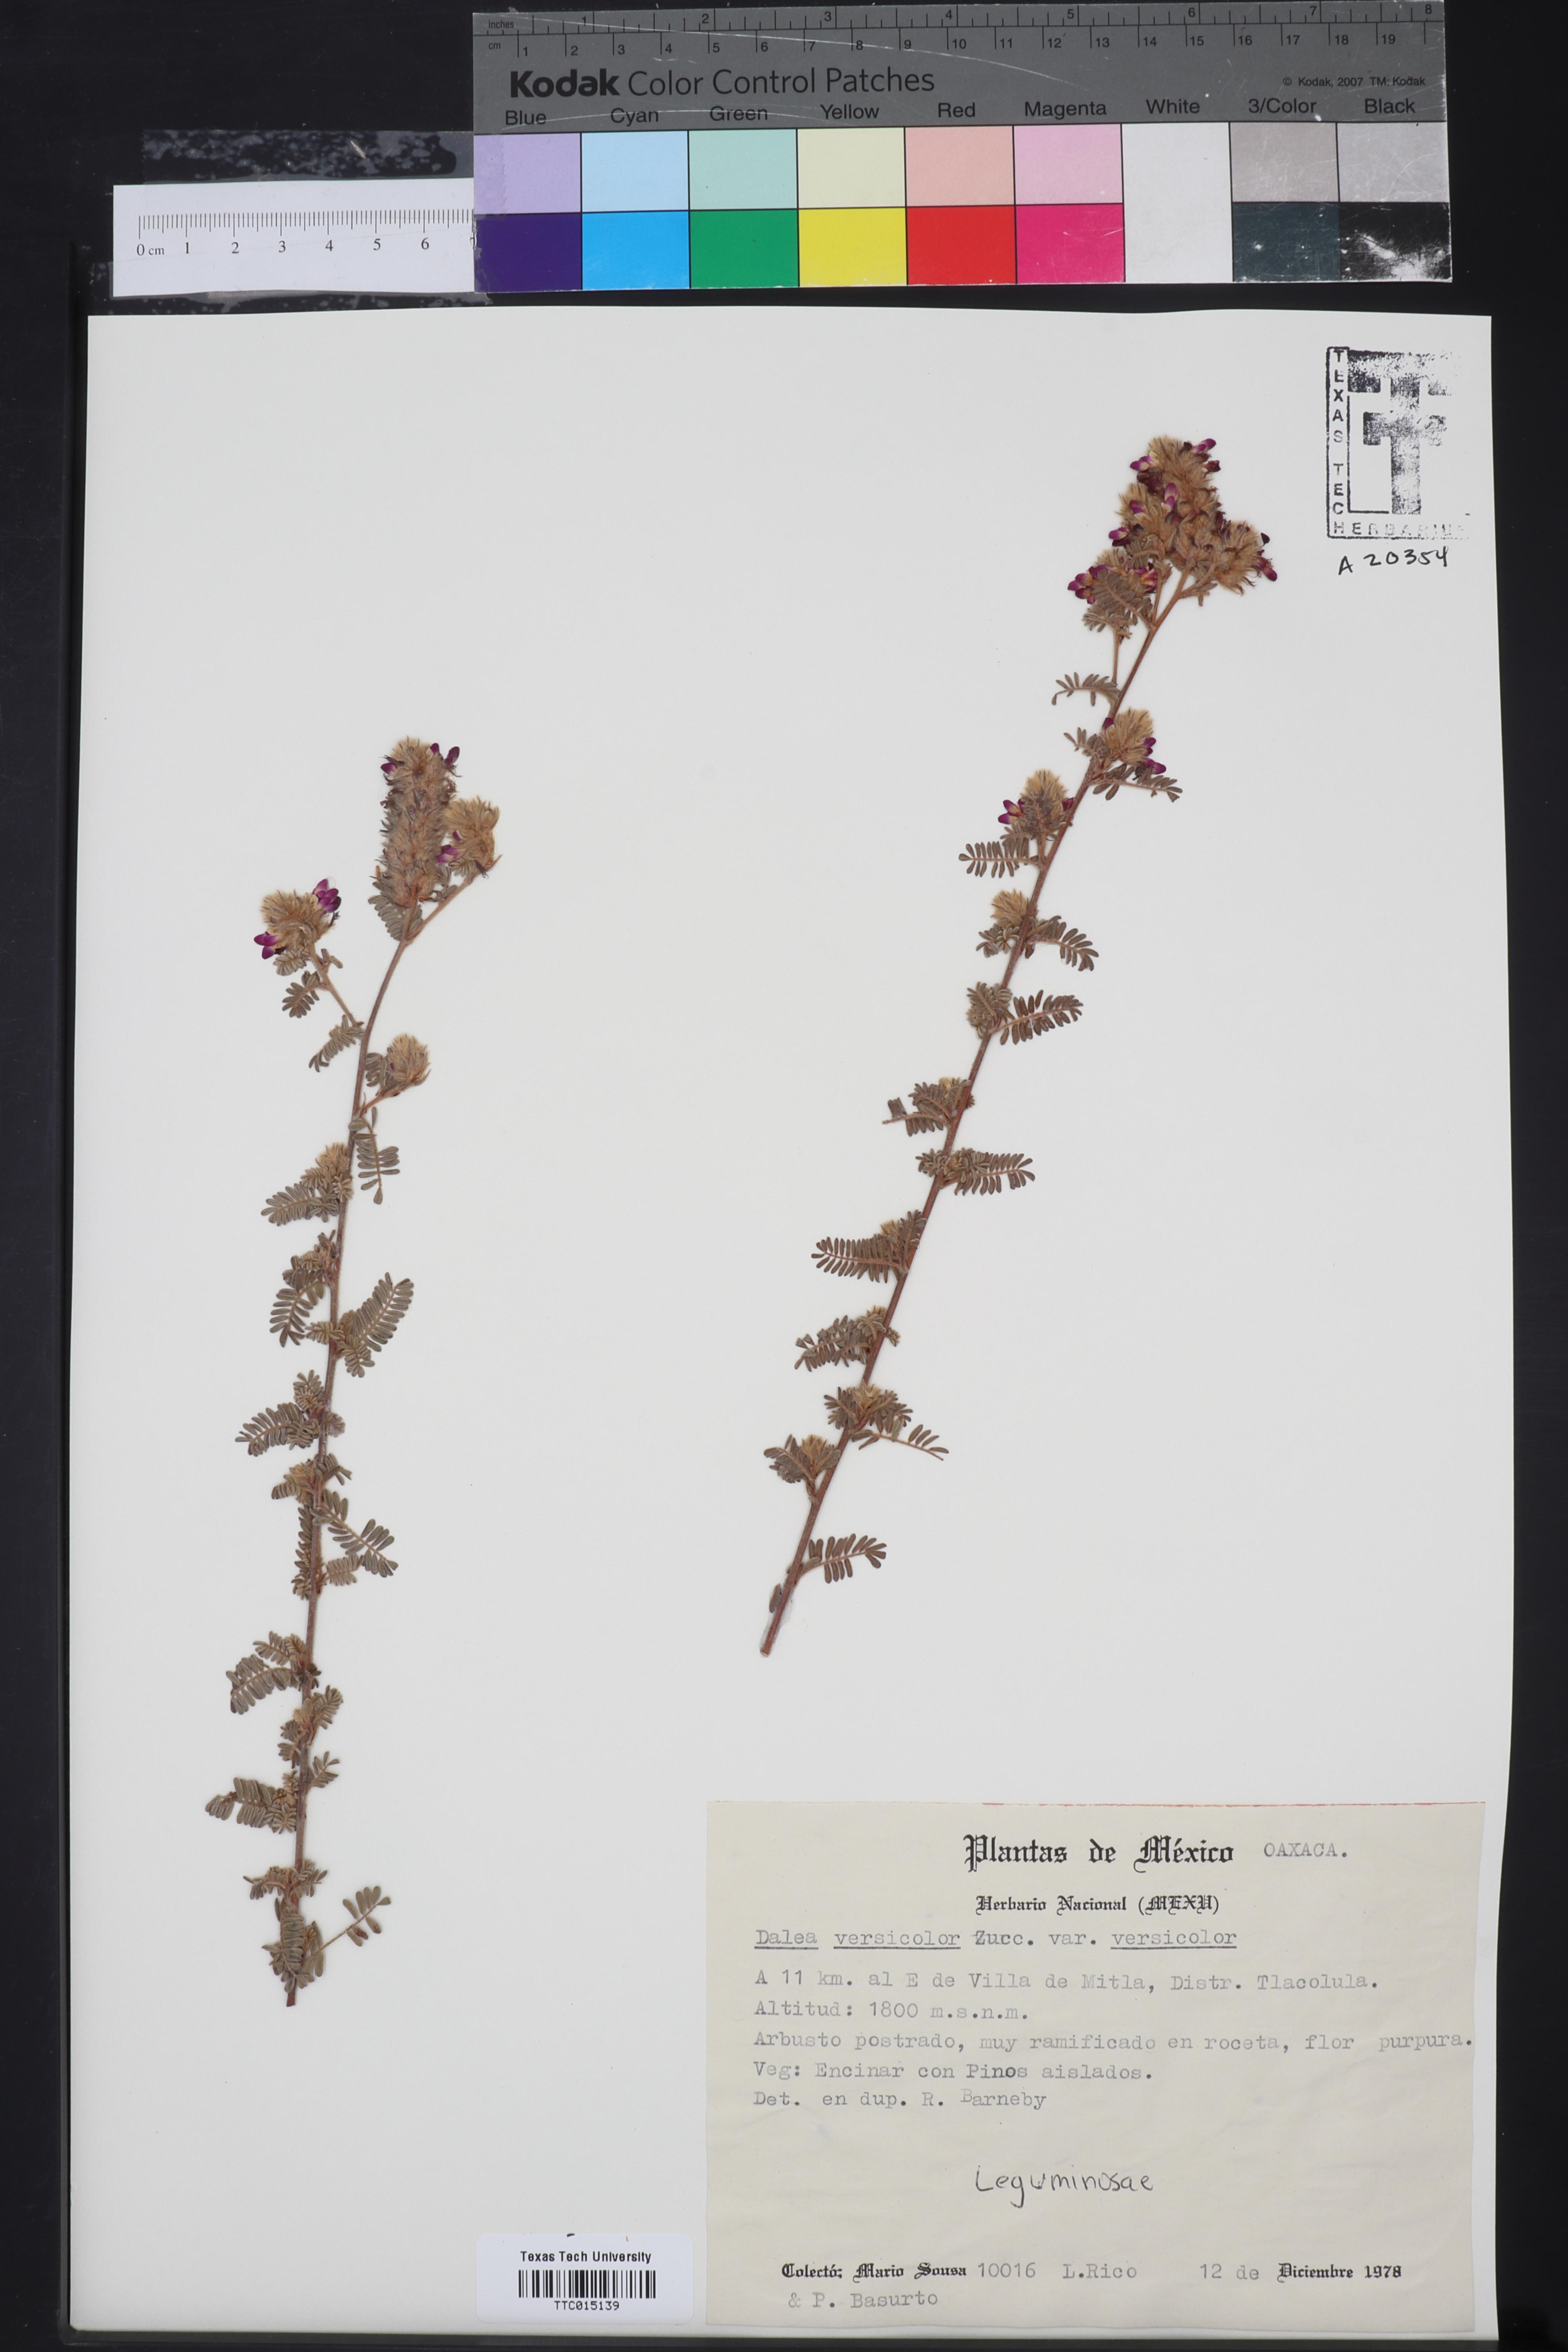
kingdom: Plantae
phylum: Tracheophyta
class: Magnoliopsida
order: Fabales
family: Fabaceae
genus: Dalea
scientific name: Dalea versicolor
